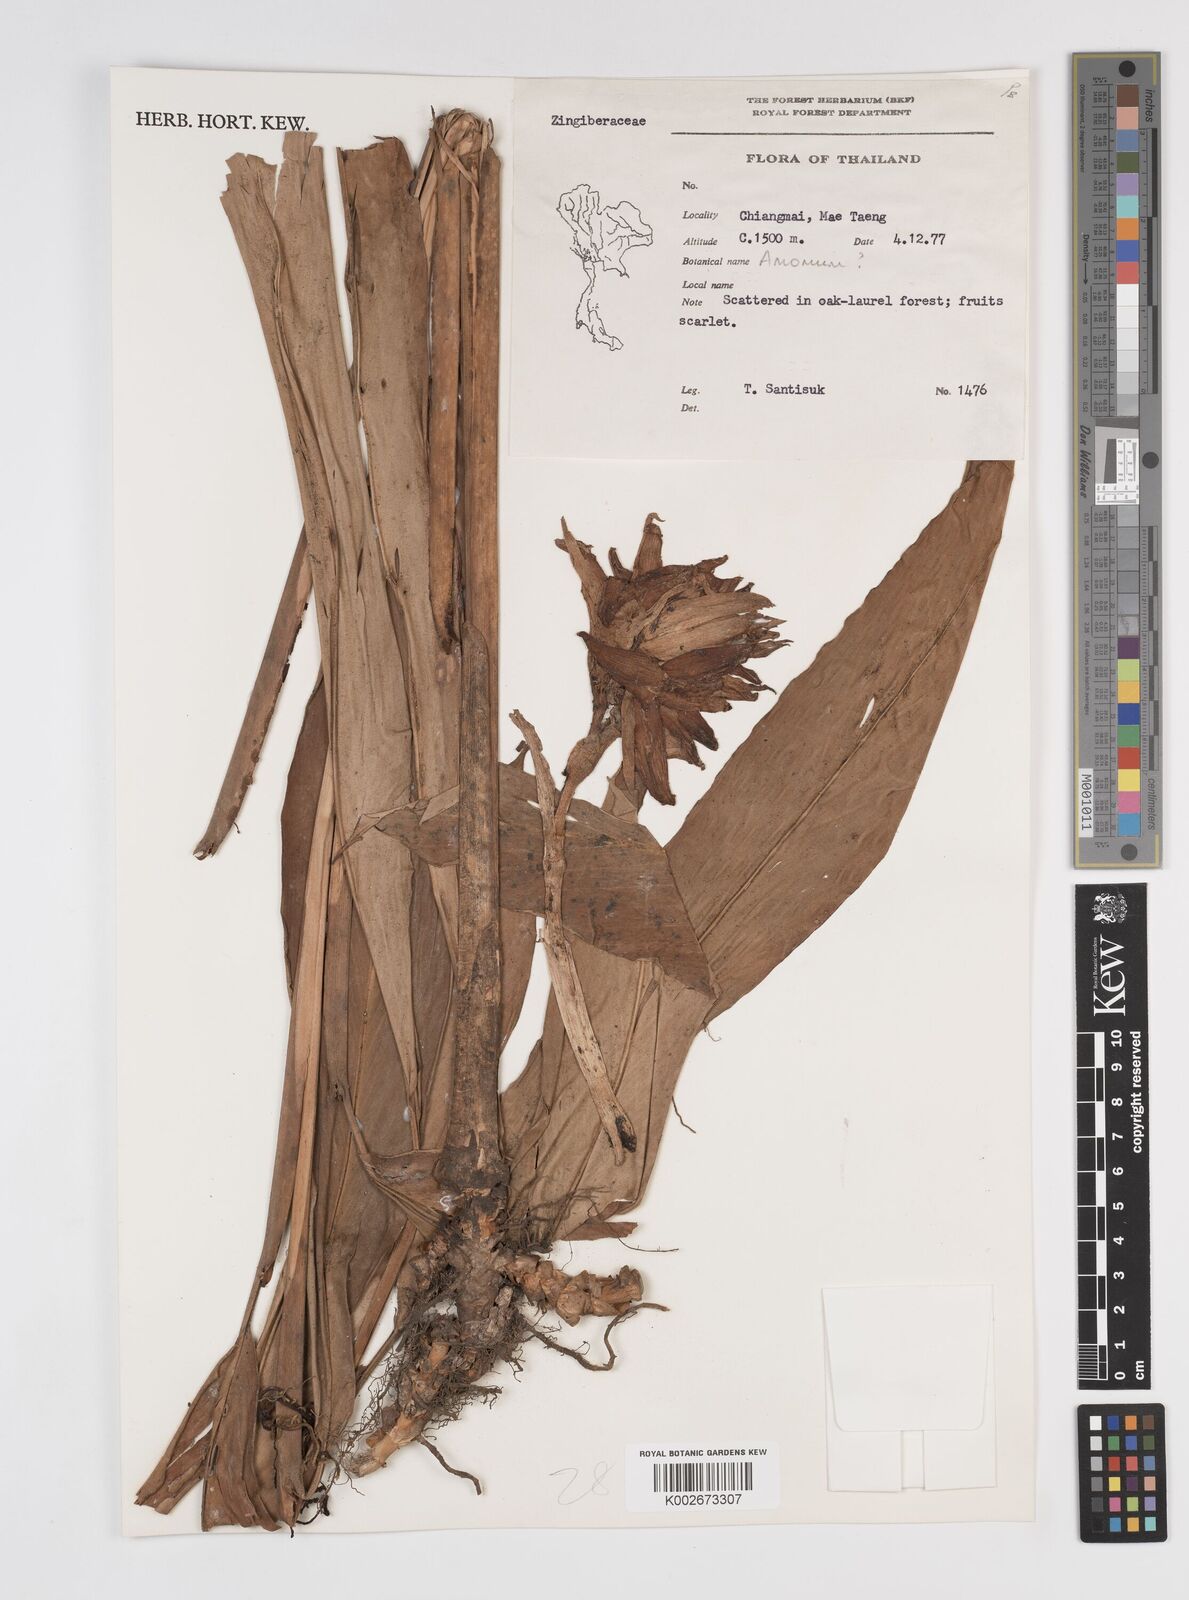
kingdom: Plantae
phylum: Tracheophyta
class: Liliopsida
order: Zingiberales
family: Zingiberaceae
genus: Amomum
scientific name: Amomum
